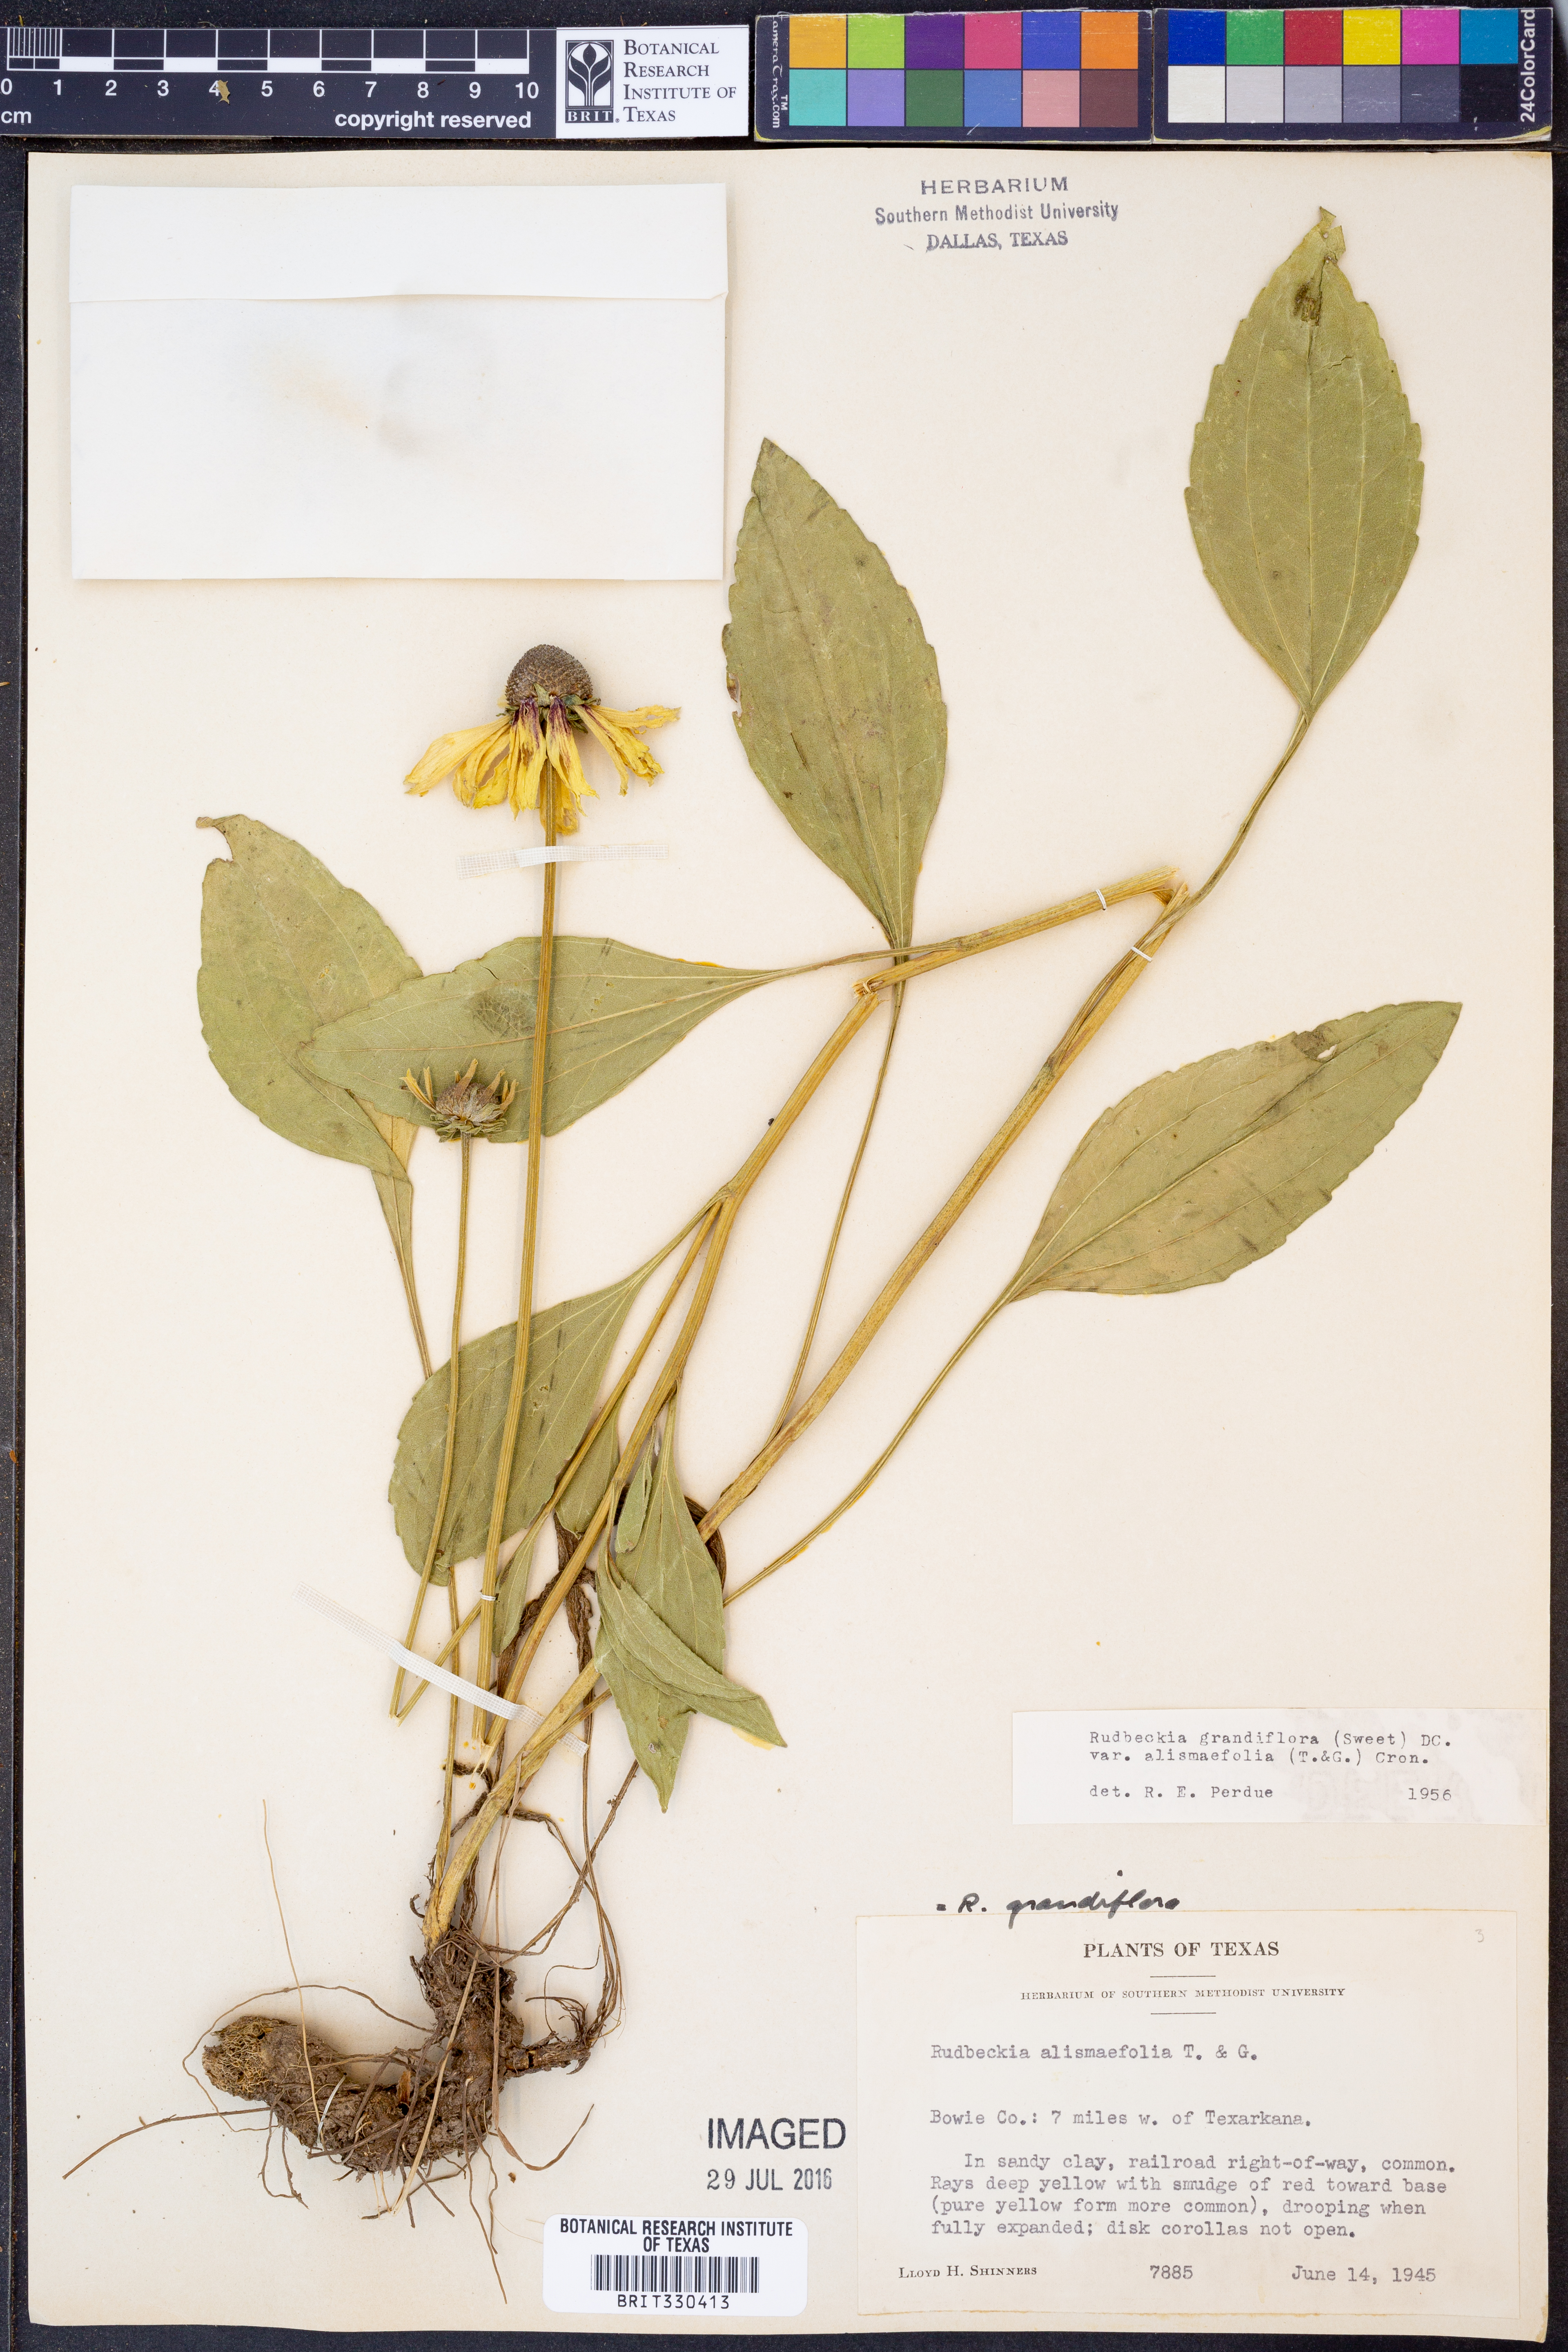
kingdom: Plantae
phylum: Tracheophyta
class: Magnoliopsida
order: Asterales
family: Asteraceae
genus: Rudbeckia
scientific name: Rudbeckia grandiflora
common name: Large-flowered coneflower
